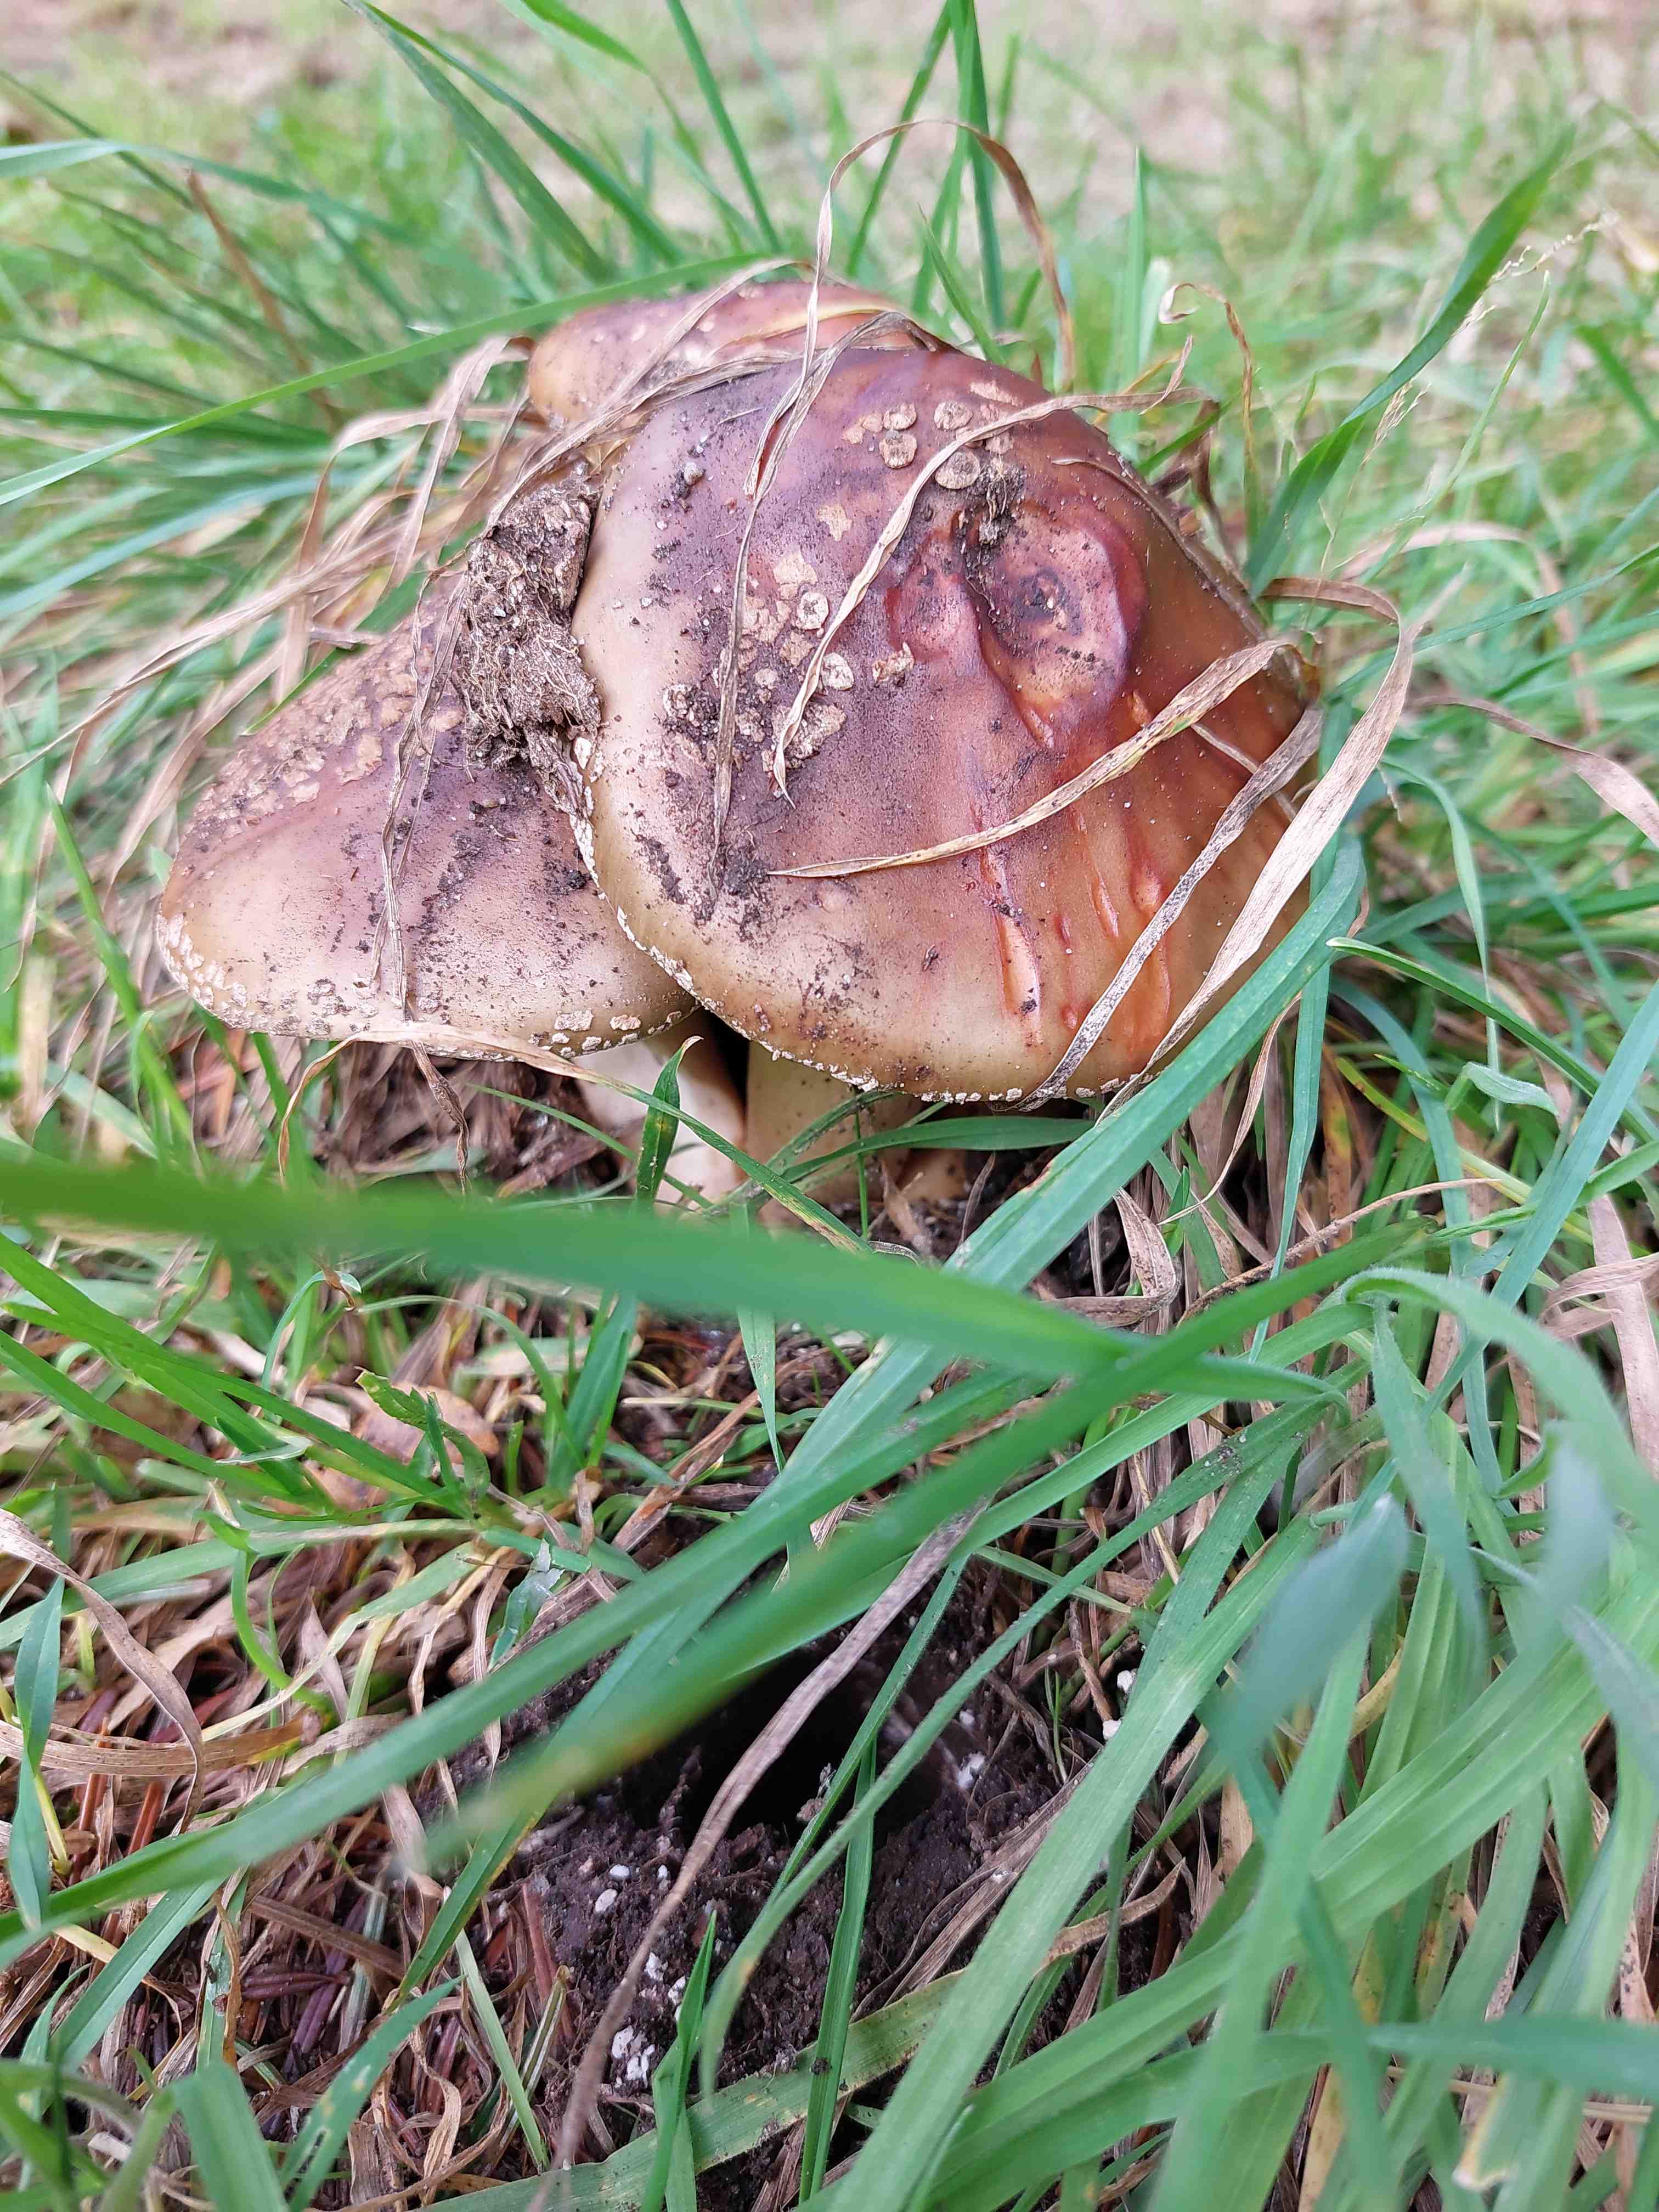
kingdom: Fungi
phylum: Basidiomycota
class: Agaricomycetes
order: Agaricales
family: Amanitaceae
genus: Amanita
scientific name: Amanita rubescens
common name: rødmende fluesvamp
